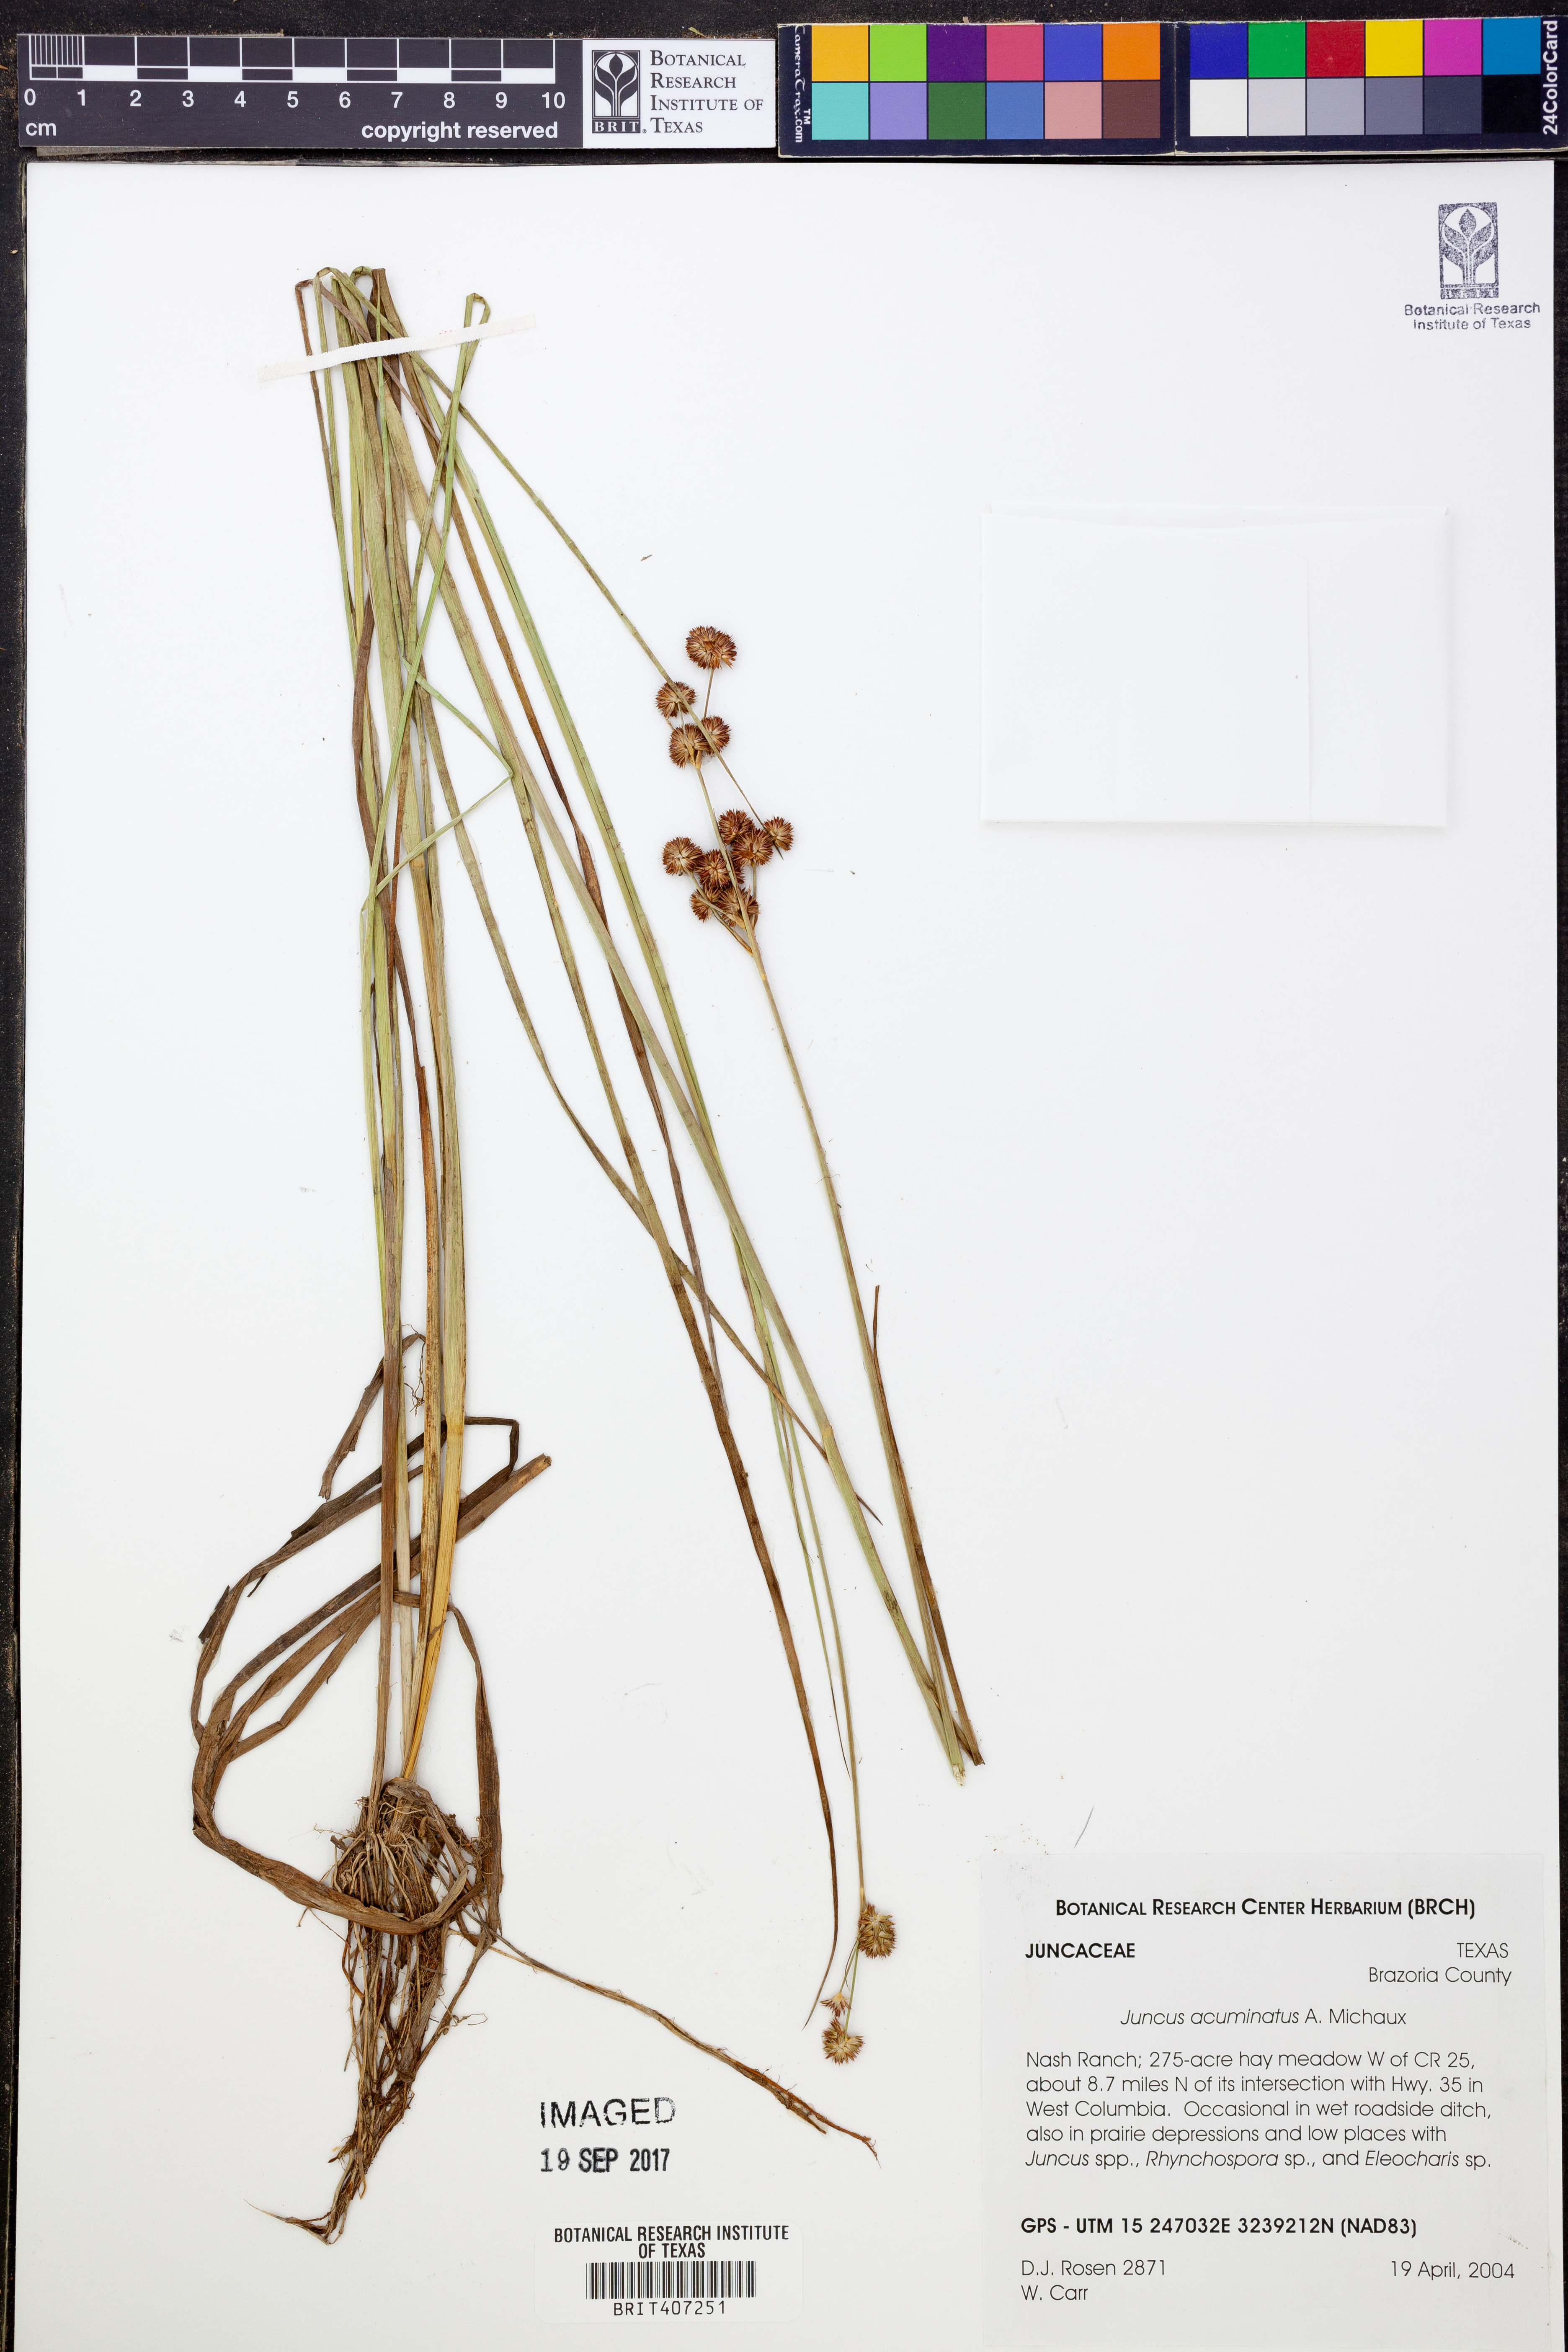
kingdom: Plantae
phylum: Tracheophyta
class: Liliopsida
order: Poales
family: Juncaceae
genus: Juncus
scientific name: Juncus acuminatus
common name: Knotty-leaved rush
